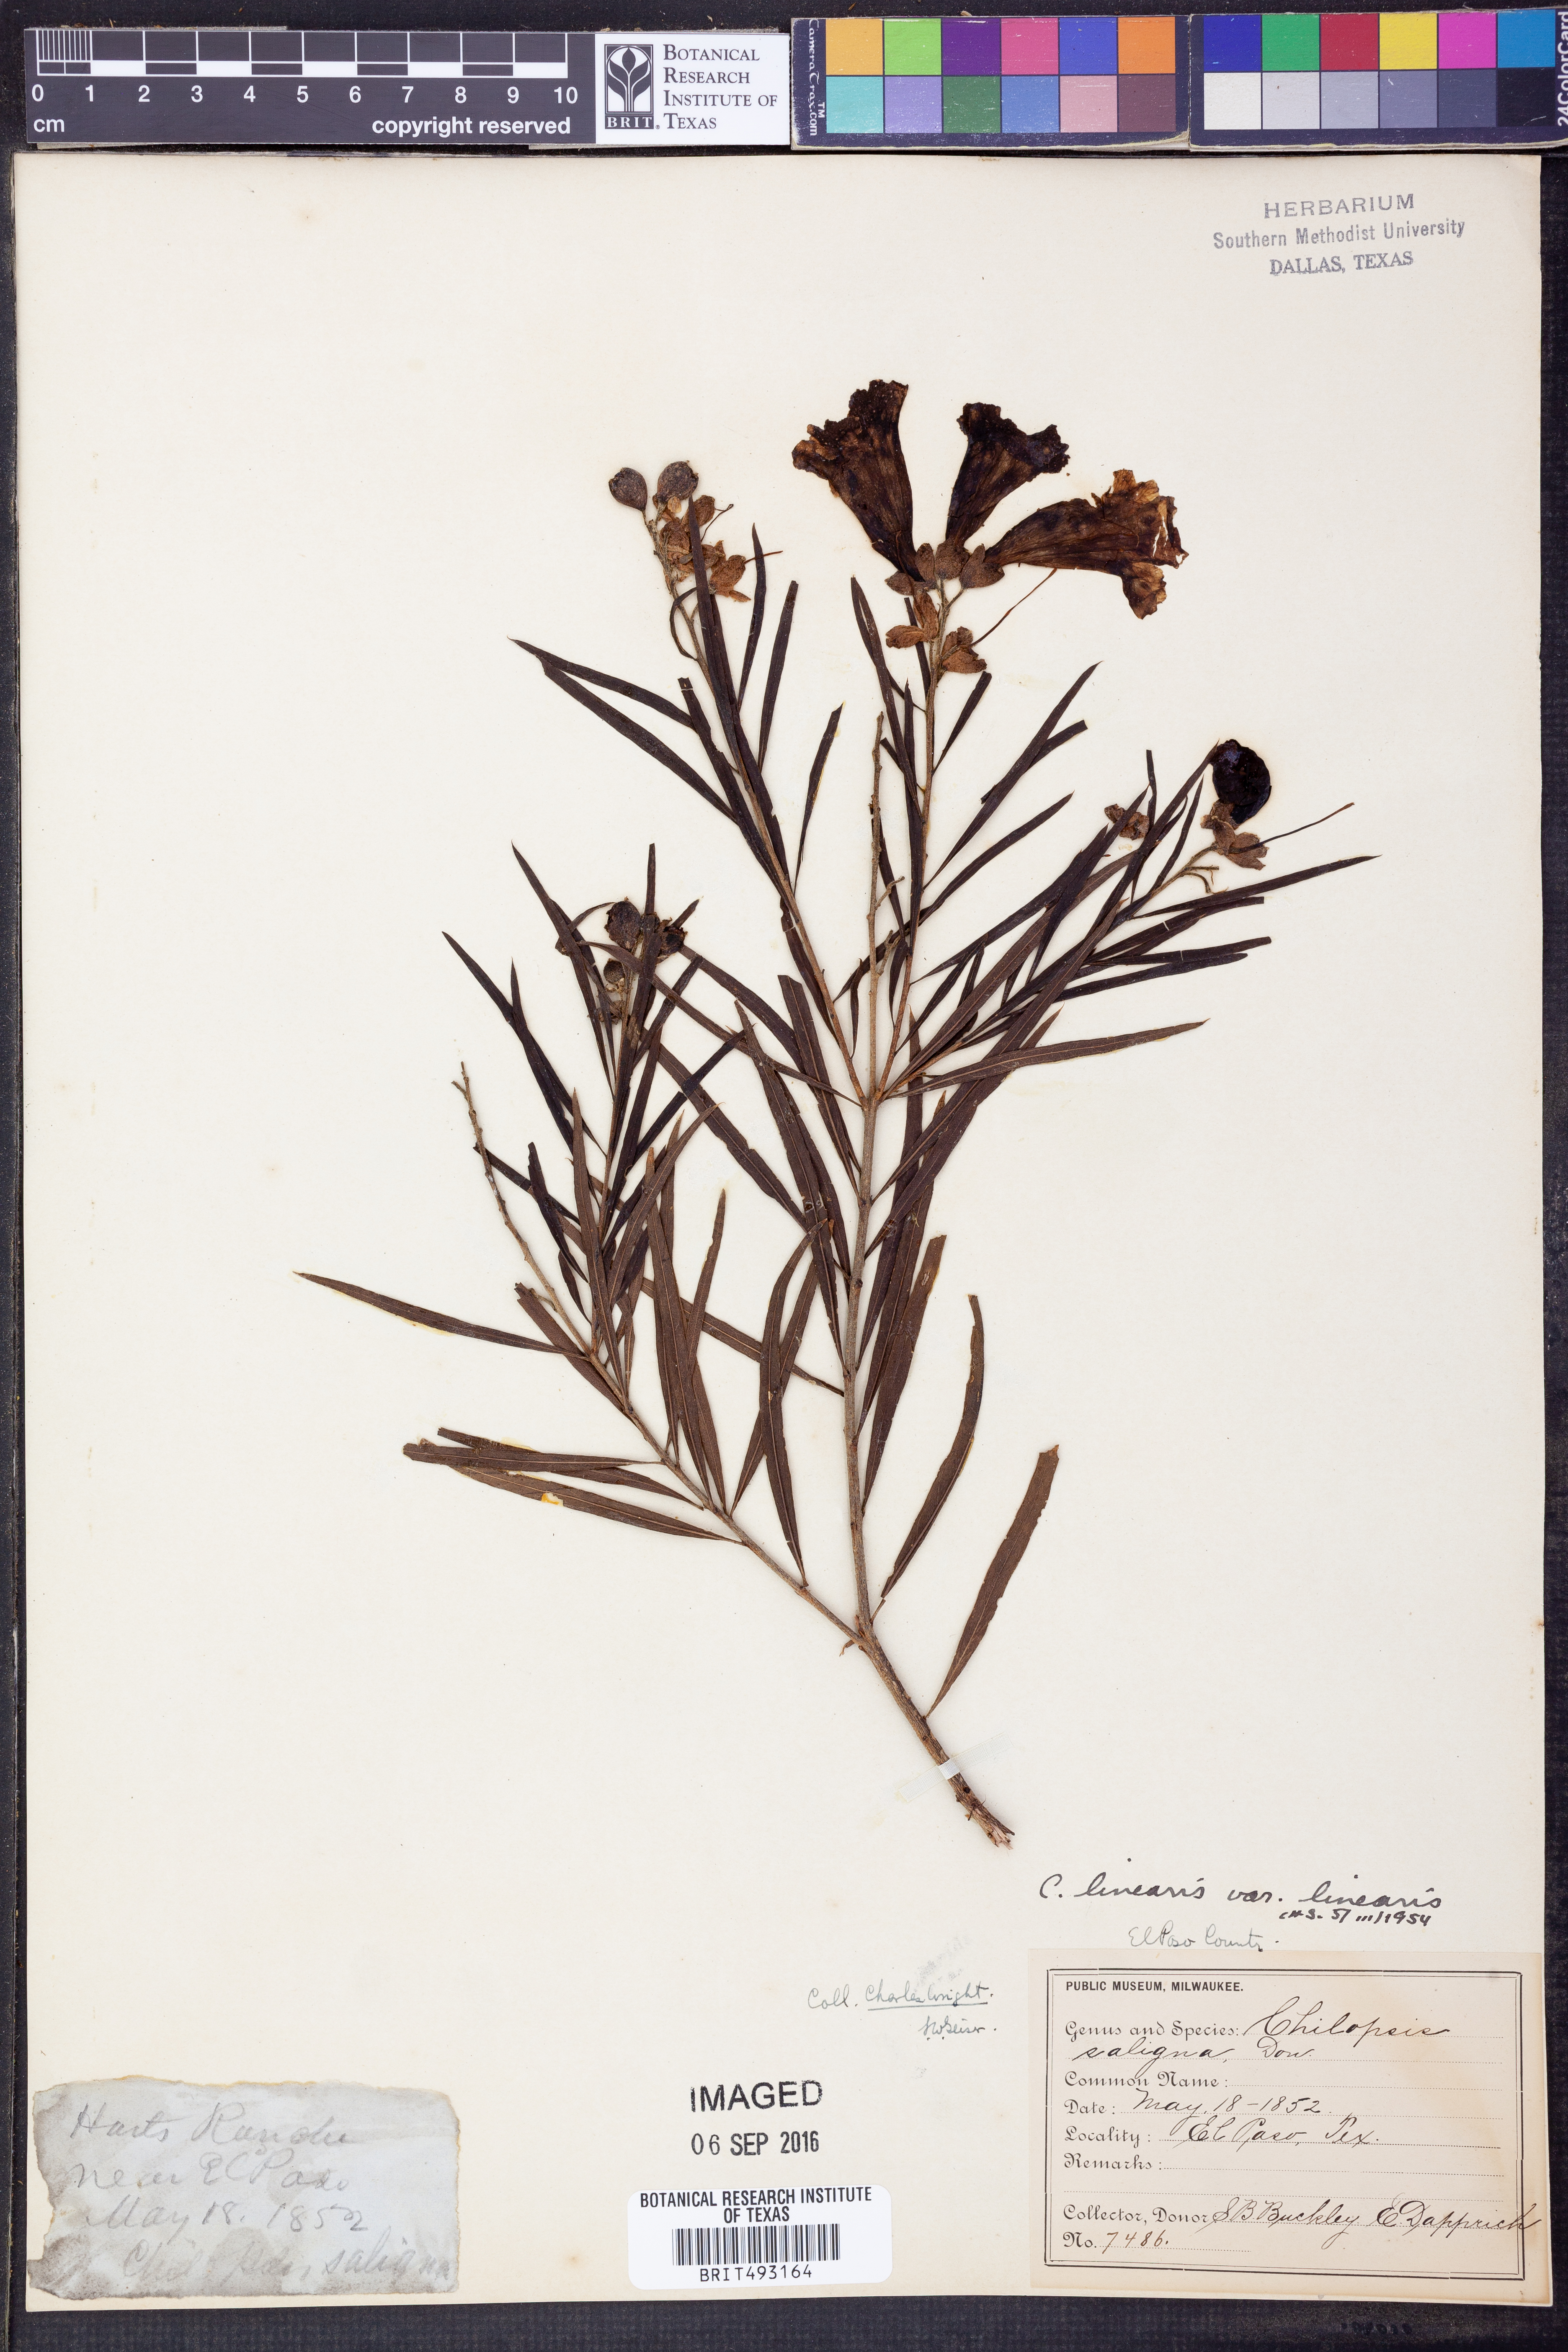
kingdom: Plantae
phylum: Tracheophyta
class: Magnoliopsida
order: Lamiales
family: Bignoniaceae
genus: Chilopsis
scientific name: Chilopsis linearis
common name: Desert-willow
